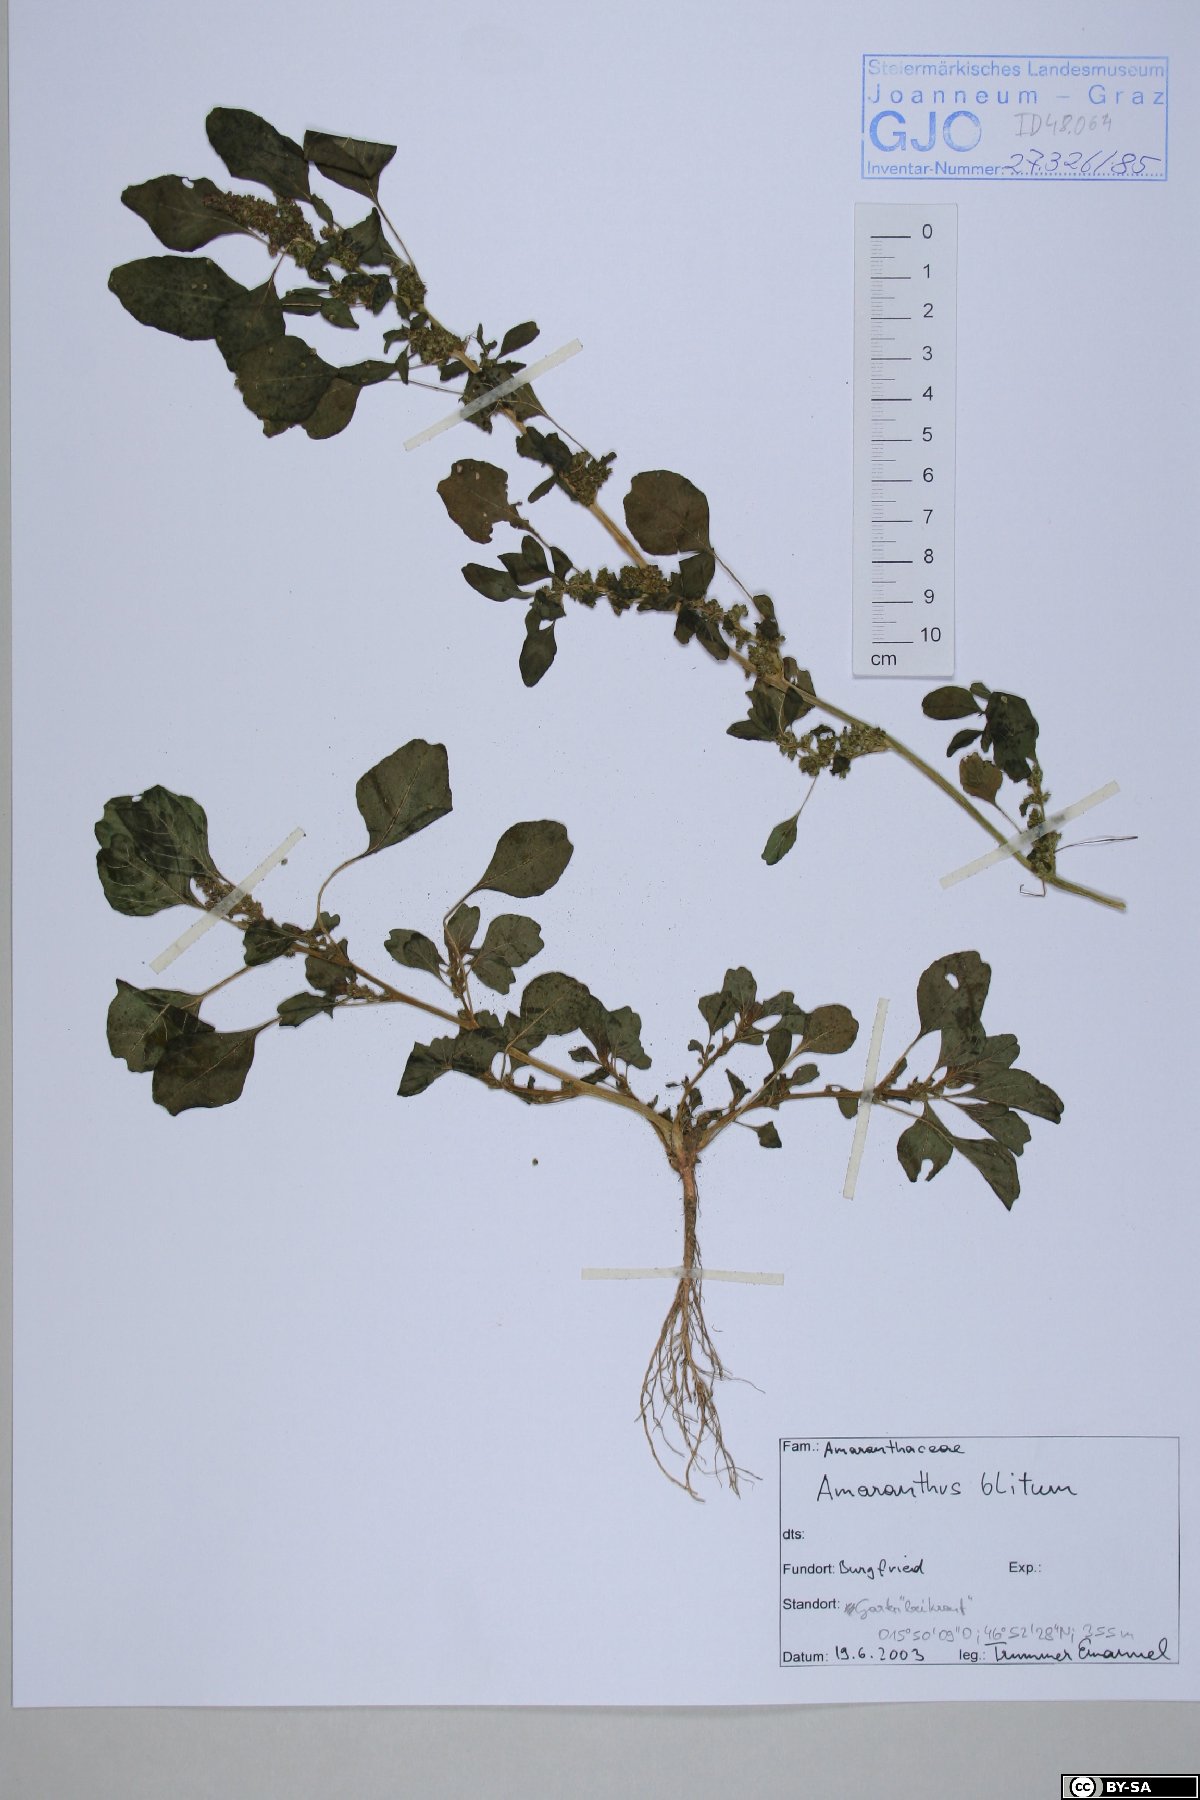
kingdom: Plantae
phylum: Tracheophyta
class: Magnoliopsida
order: Caryophyllales
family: Amaranthaceae
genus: Amaranthus
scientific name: Amaranthus blitum
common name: Purple amaranth
